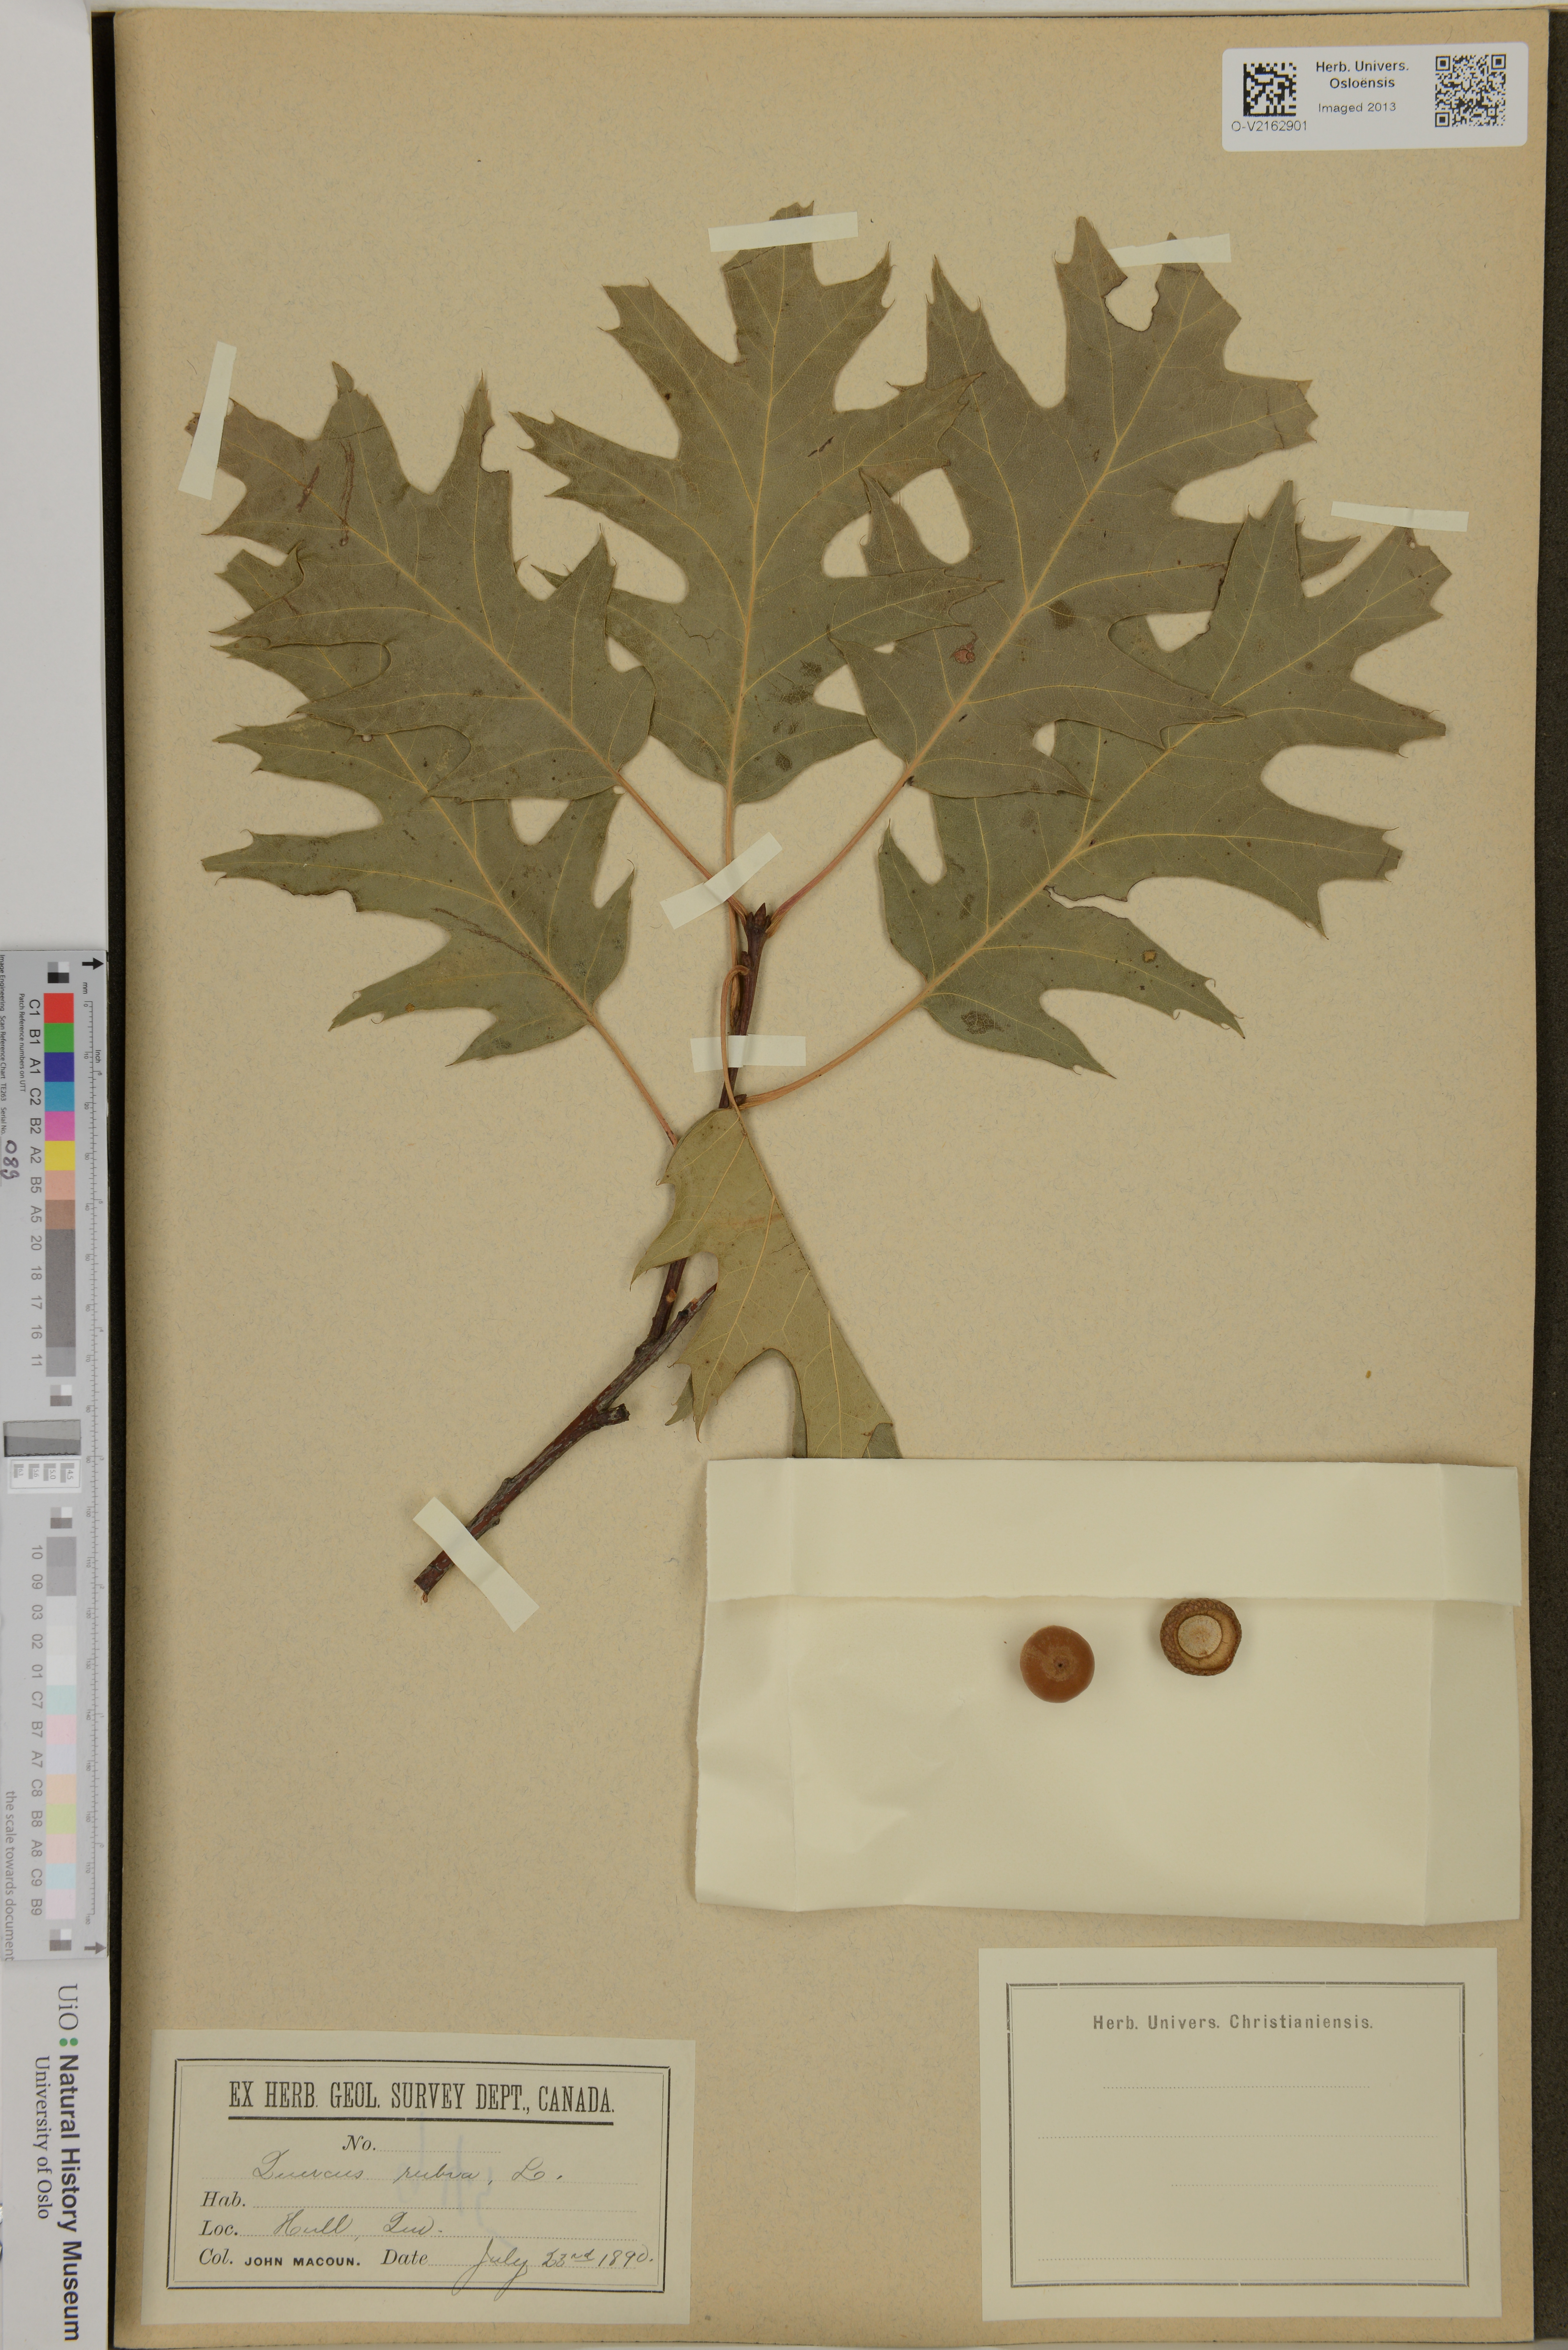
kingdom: Plantae
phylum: Tracheophyta
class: Magnoliopsida
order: Fagales
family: Fagaceae
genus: Quercus
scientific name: Quercus rubra
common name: Red oak
